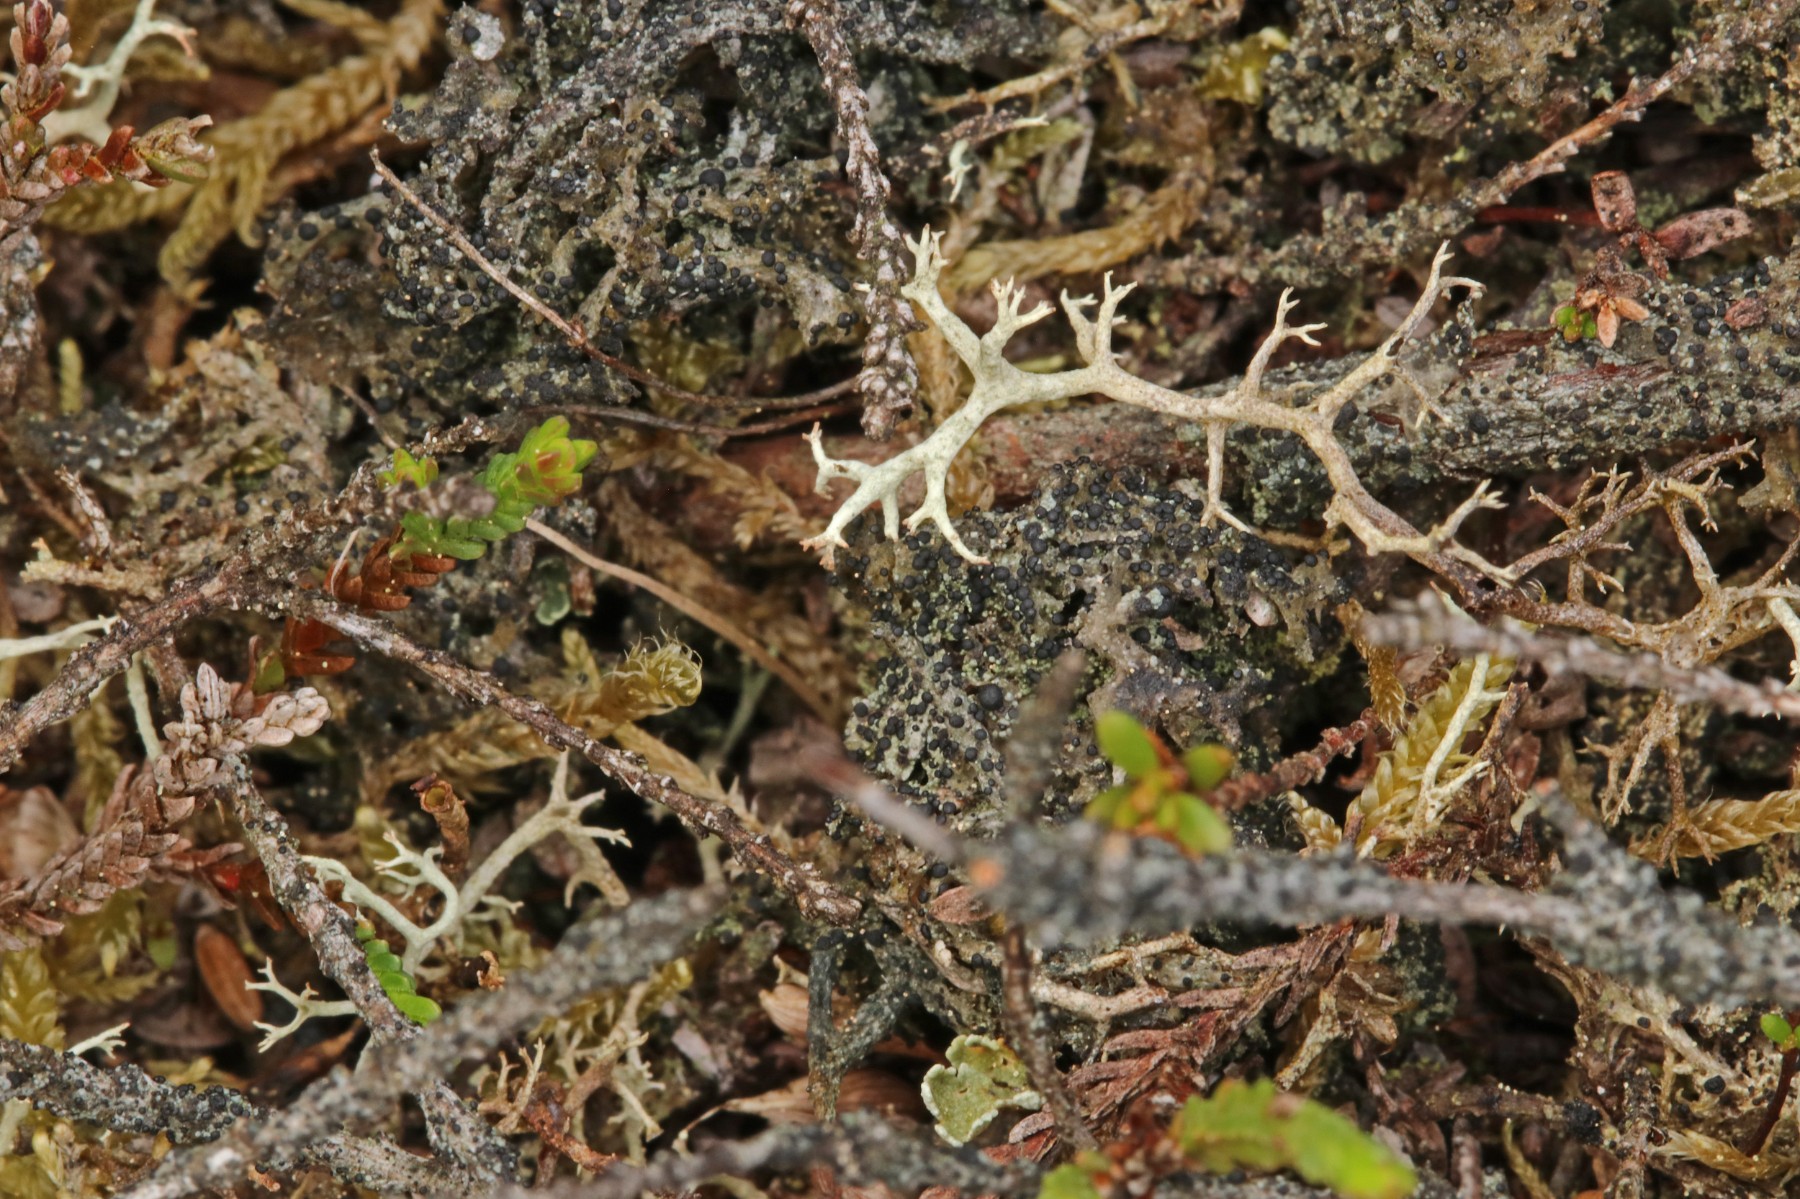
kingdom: Fungi
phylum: Ascomycota
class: Lecanoromycetes
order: Lecanorales
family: Byssolomataceae
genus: Micarea
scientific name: Micarea lignaria
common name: tørve-knaplav
